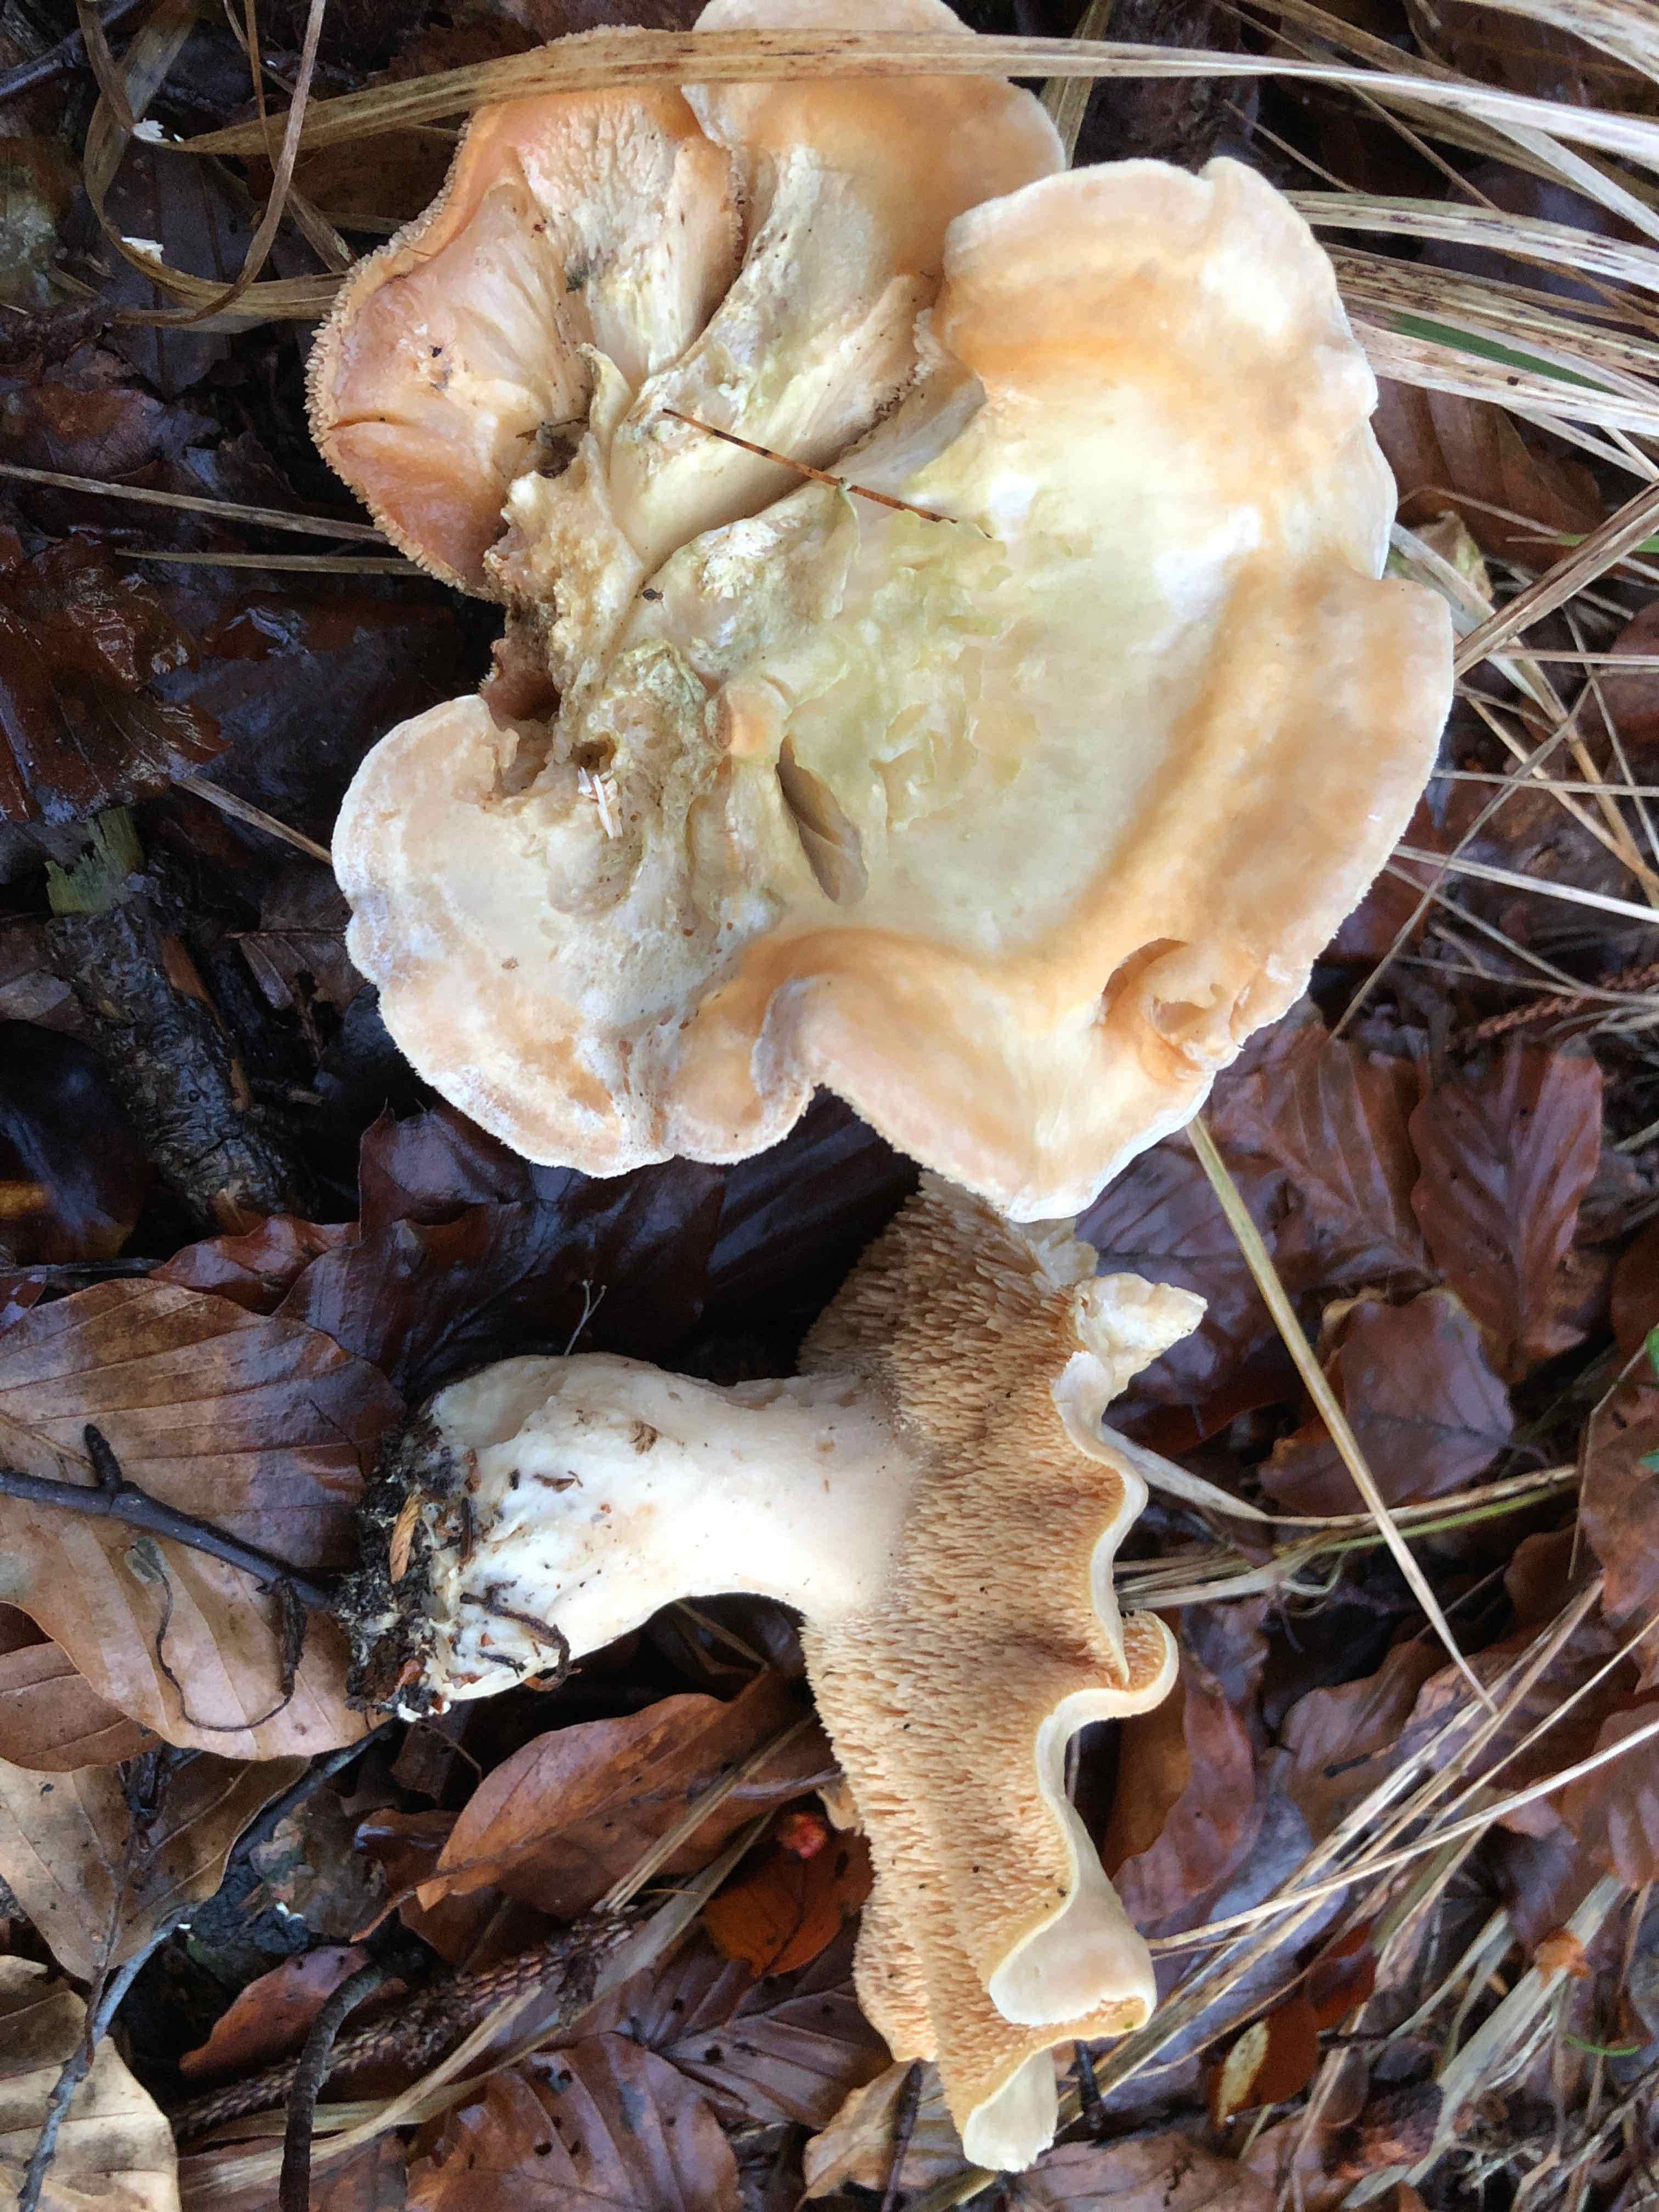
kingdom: Fungi
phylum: Basidiomycota
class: Agaricomycetes
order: Cantharellales
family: Hydnaceae
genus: Hydnum
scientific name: Hydnum
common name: pigsvamp
